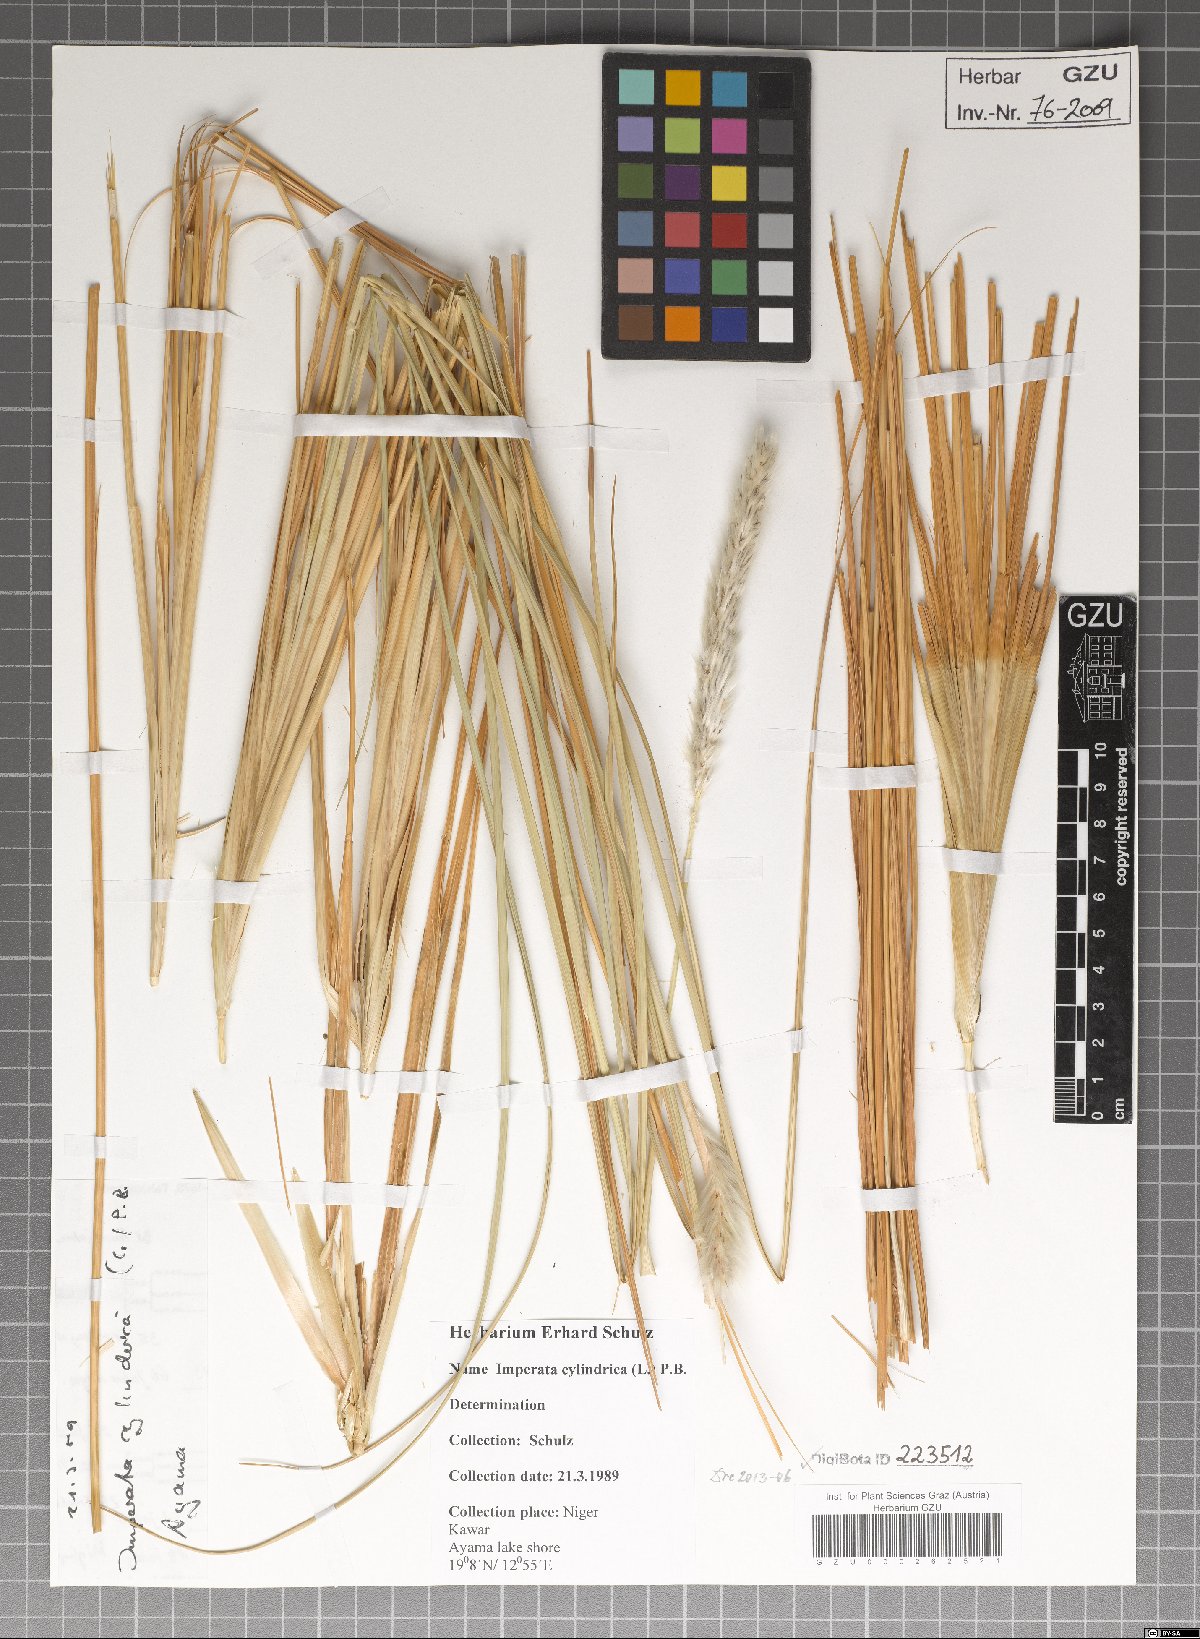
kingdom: Plantae
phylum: Tracheophyta
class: Liliopsida
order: Poales
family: Poaceae
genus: Imperata
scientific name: Imperata cylindrica
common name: Cogongrass
